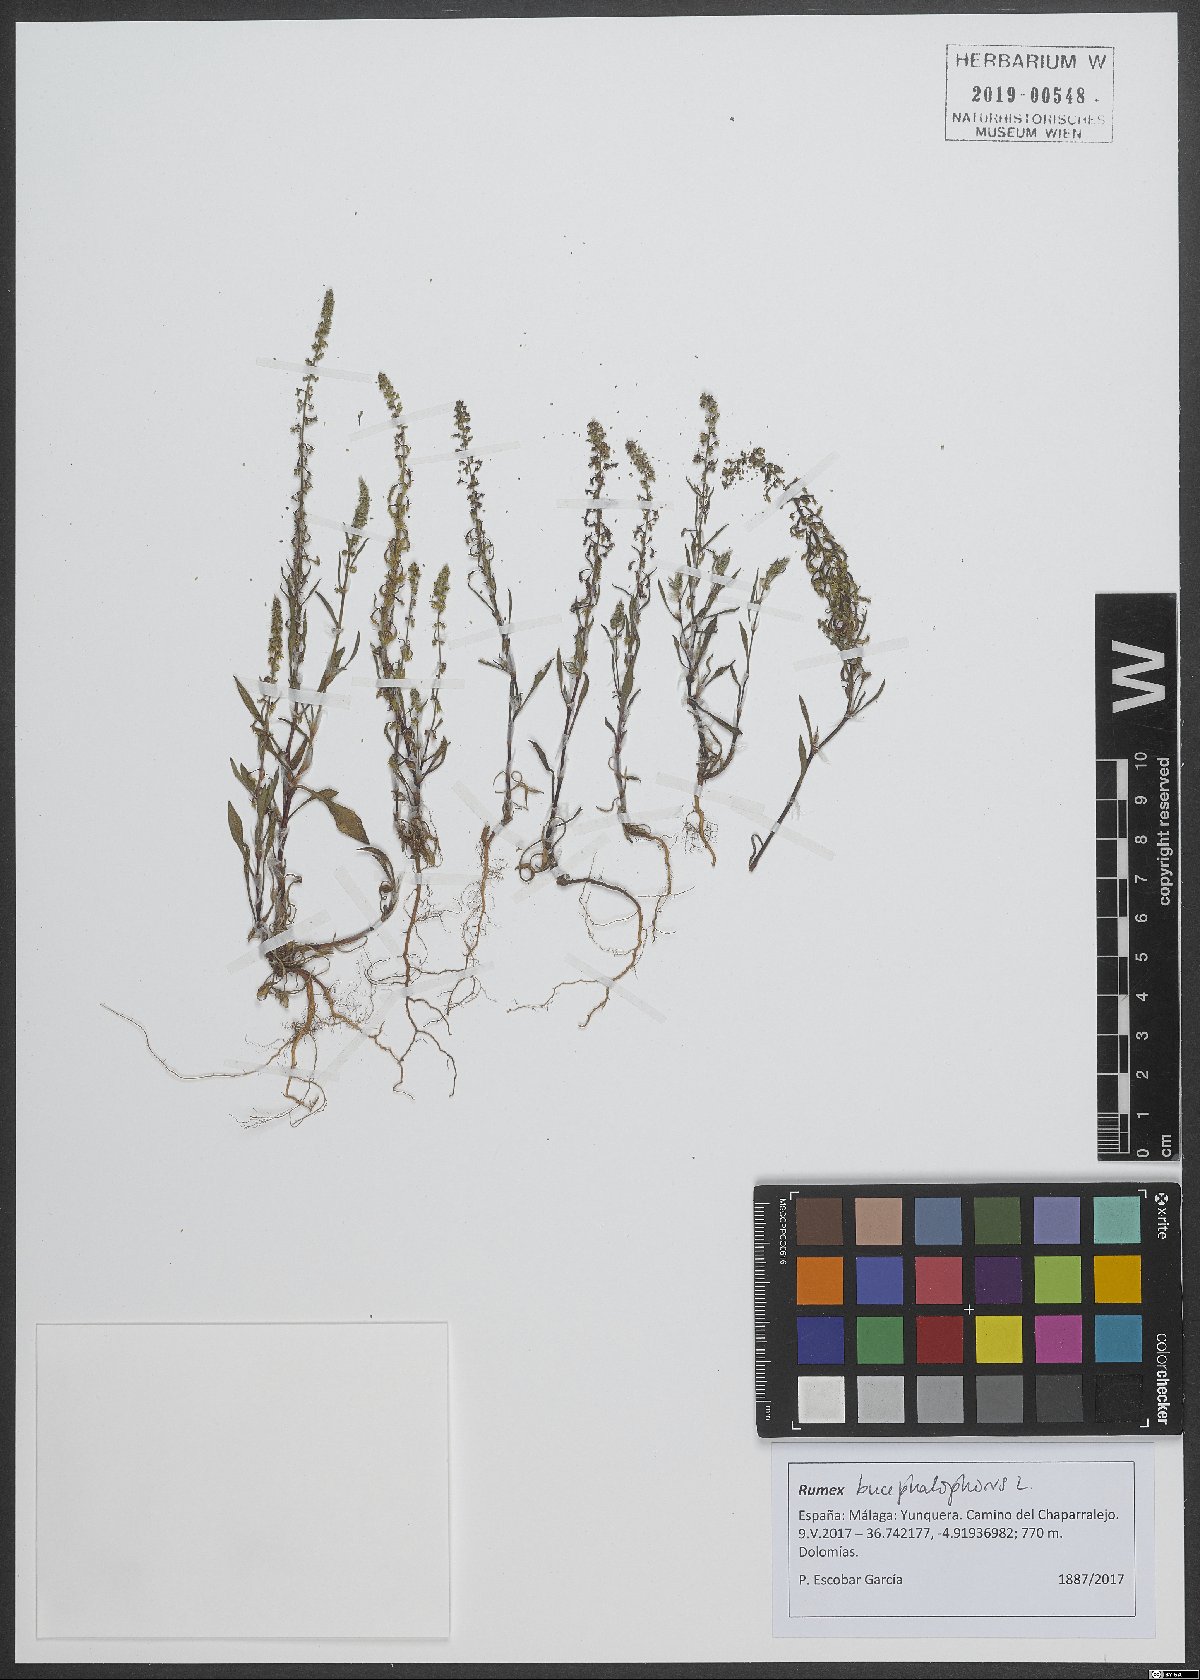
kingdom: Plantae
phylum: Tracheophyta
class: Magnoliopsida
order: Caryophyllales
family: Polygonaceae
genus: Rumex
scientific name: Rumex bucephalophorus
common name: Red dock
